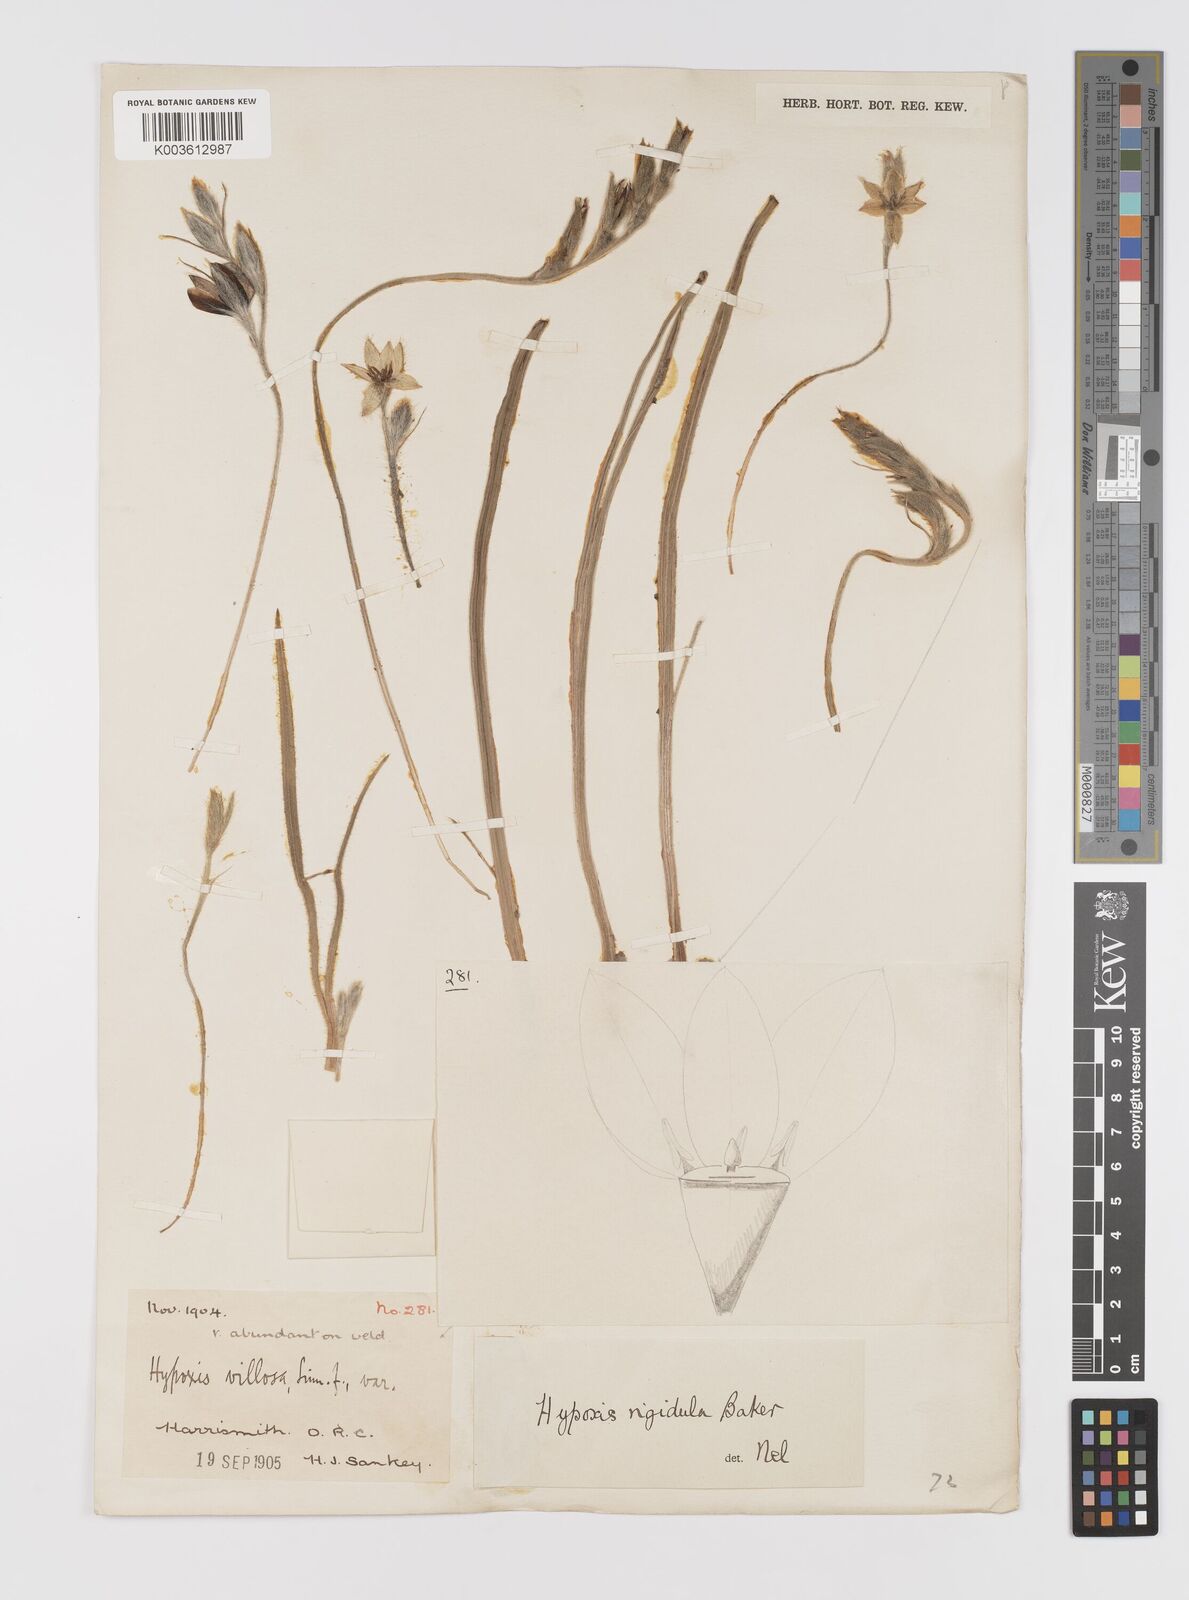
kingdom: Plantae
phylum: Tracheophyta
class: Liliopsida
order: Asparagales
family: Hypoxidaceae
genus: Hypoxis
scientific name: Hypoxis rigidula
